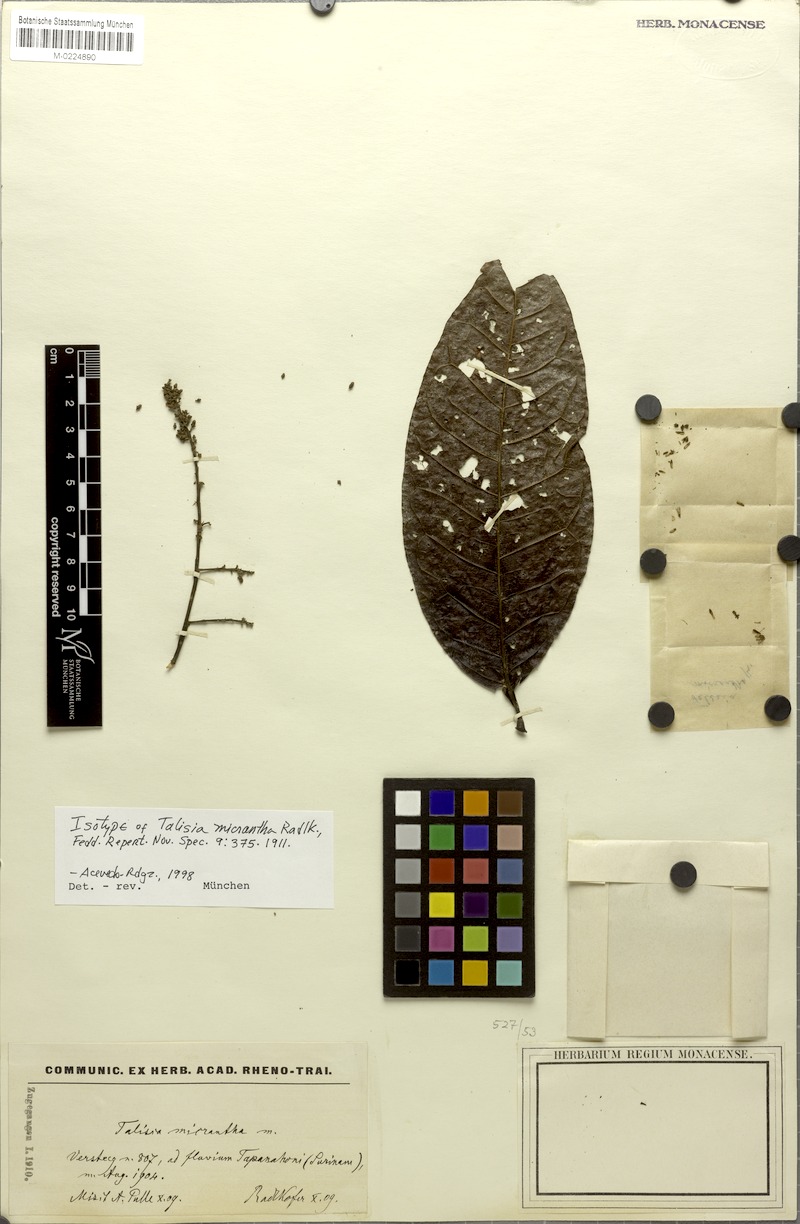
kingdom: Plantae
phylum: Tracheophyta
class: Magnoliopsida
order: Sapindales
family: Sapindaceae
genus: Talisia
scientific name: Talisia sylvatica
